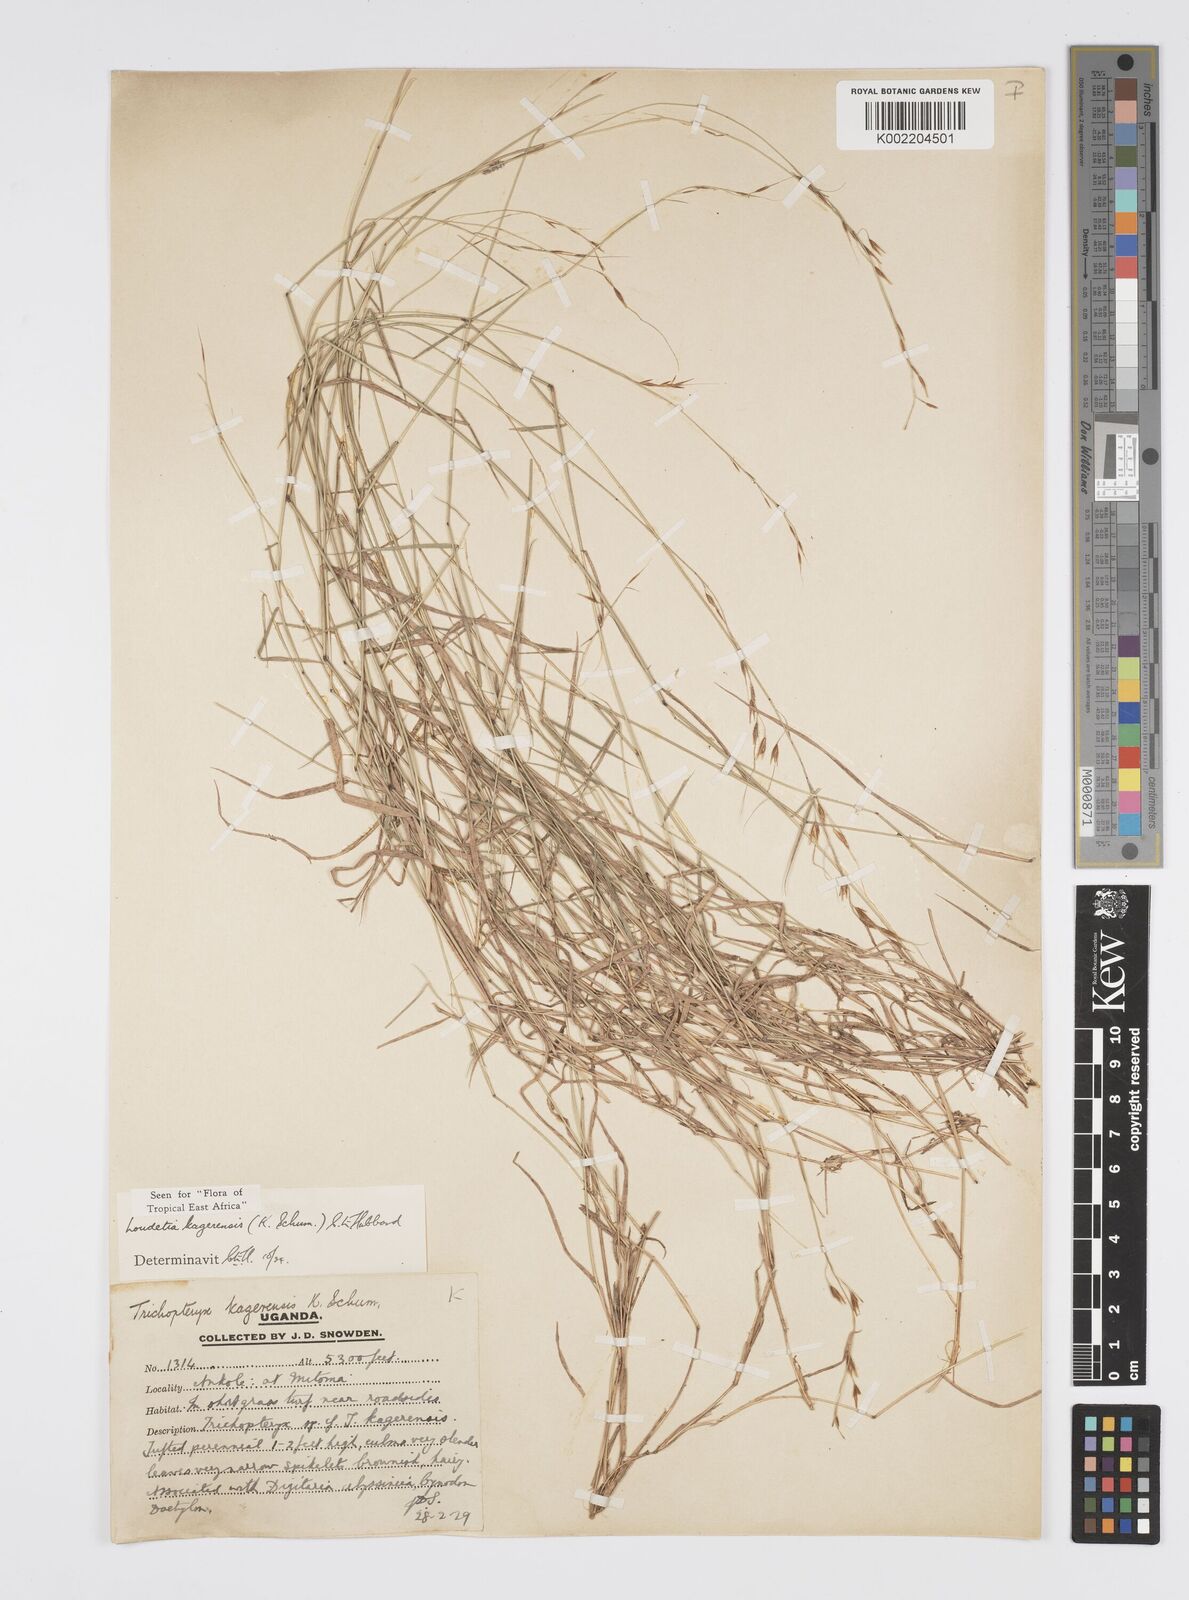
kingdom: Plantae
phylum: Tracheophyta
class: Liliopsida
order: Poales
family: Poaceae
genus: Loudetia
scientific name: Loudetia kagerensis
